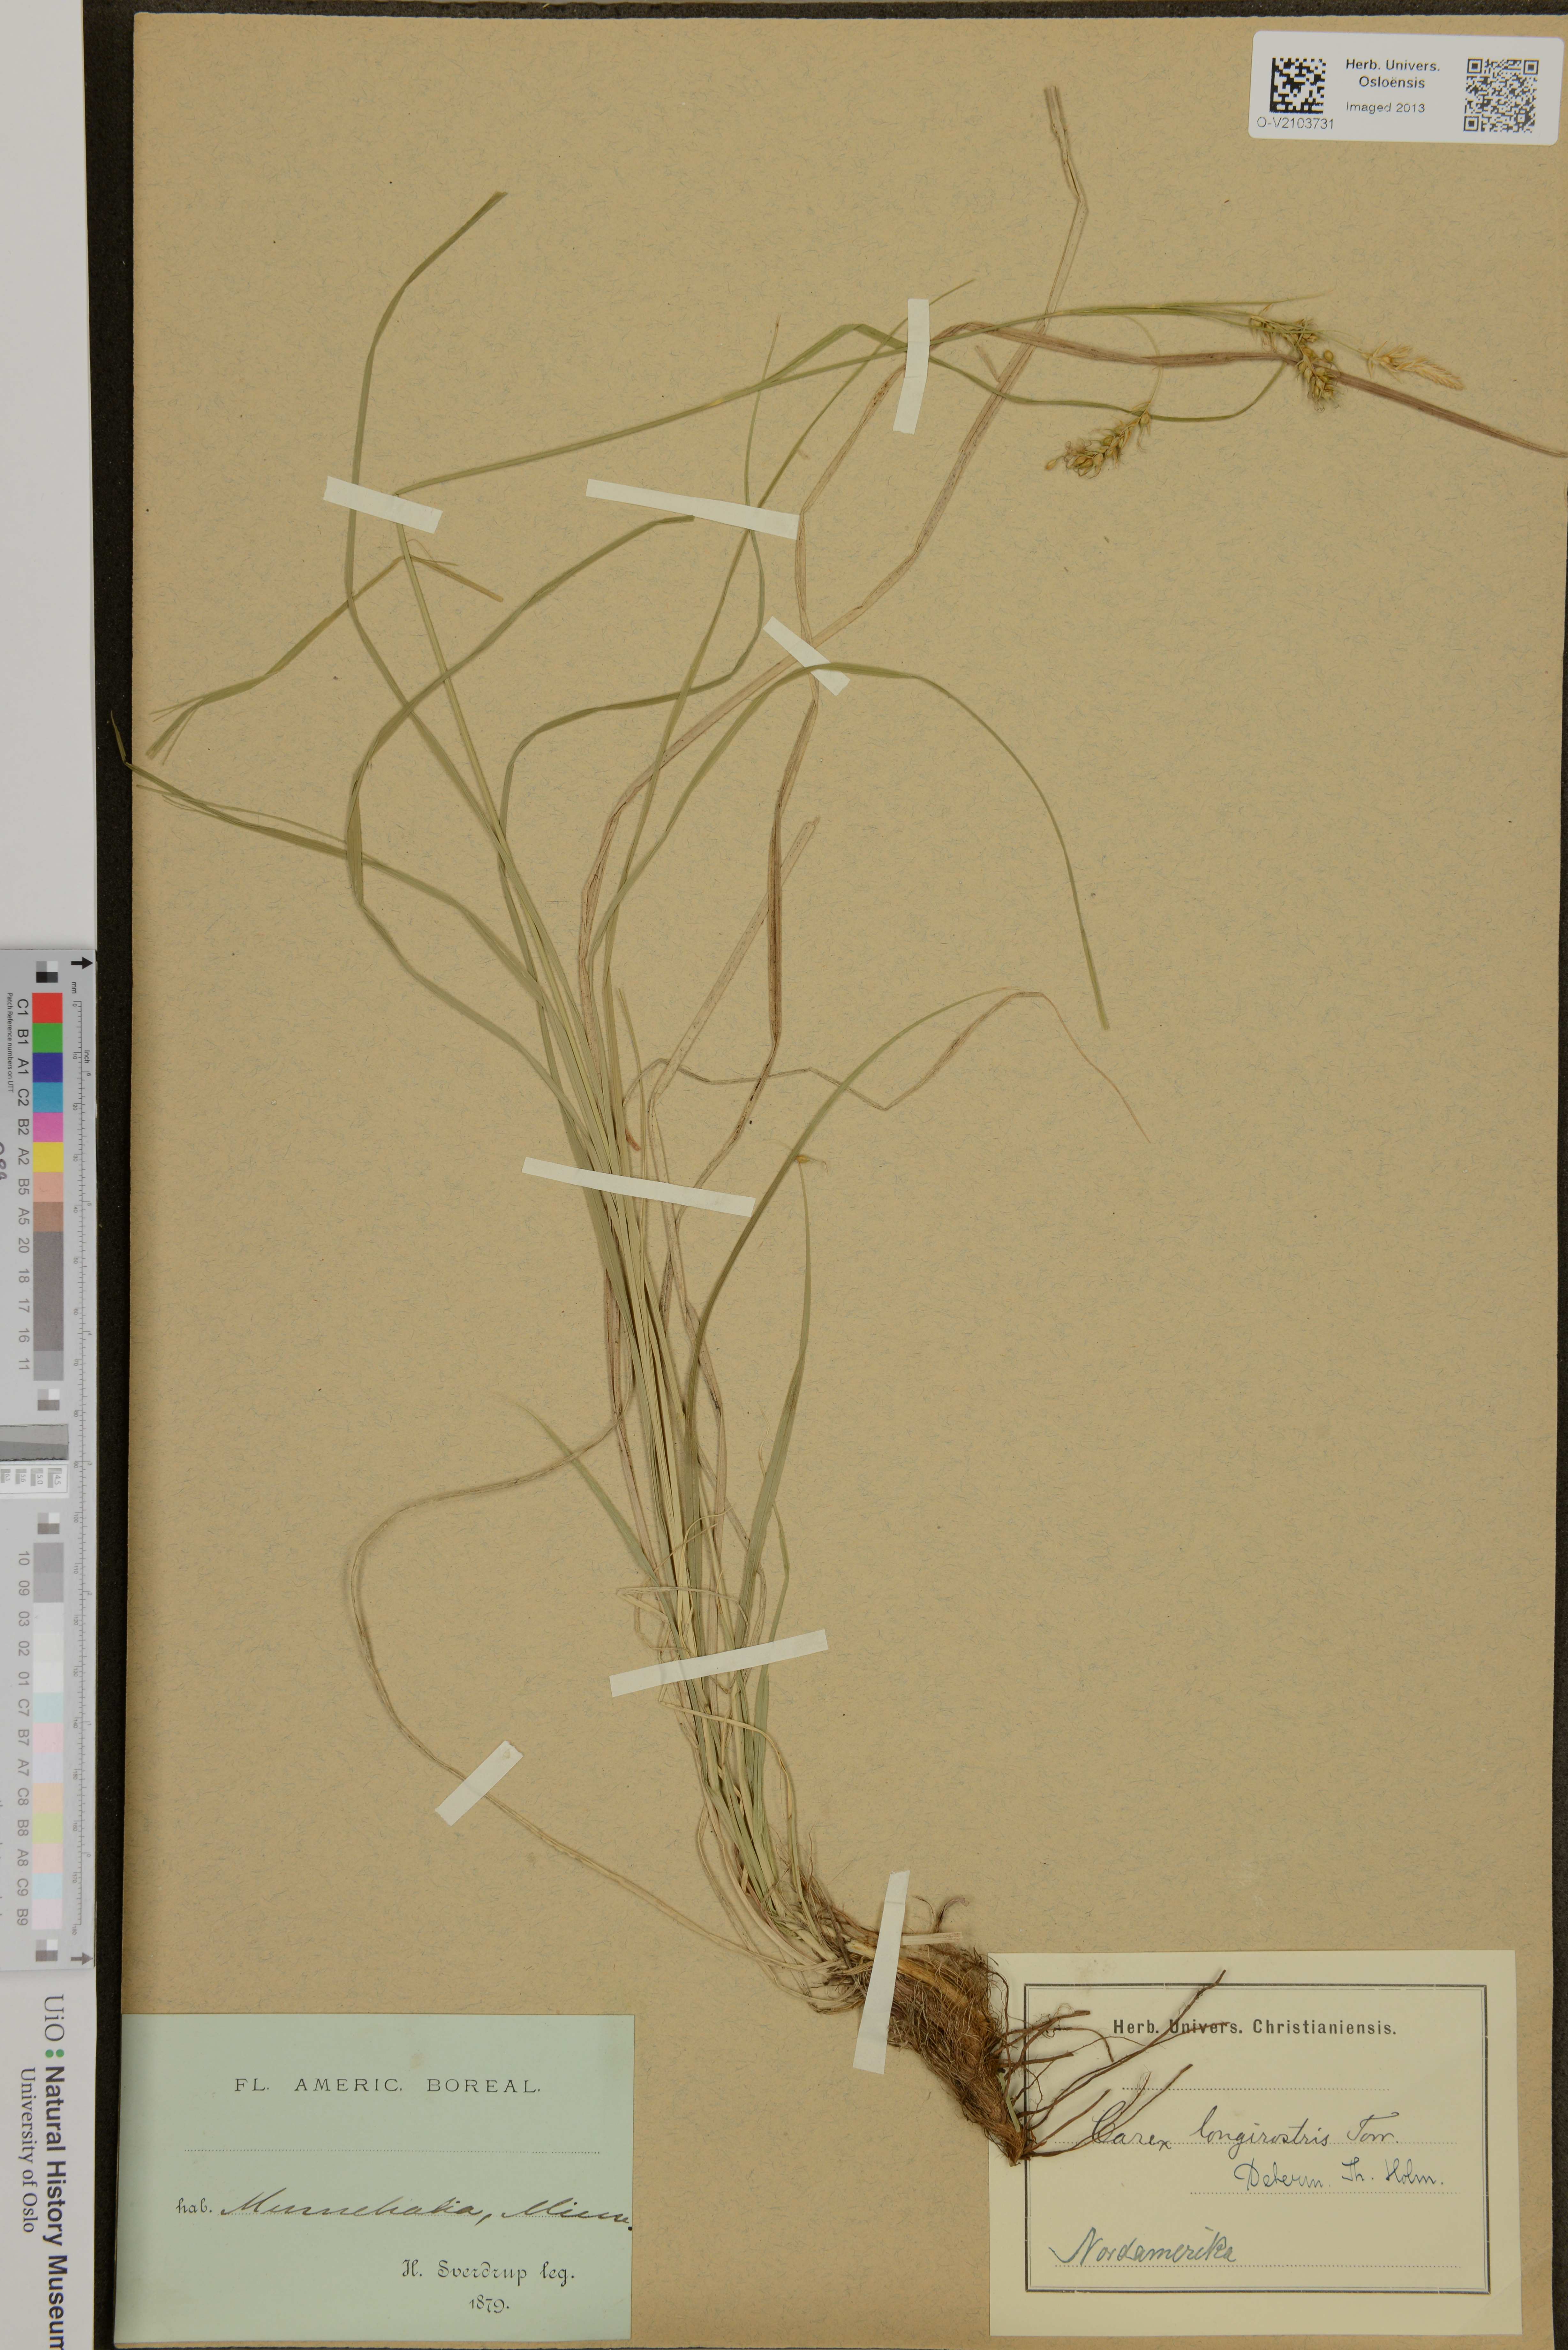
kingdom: Plantae
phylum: Tracheophyta
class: Liliopsida
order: Poales
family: Cyperaceae
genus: Carex
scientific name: Carex longirostris
